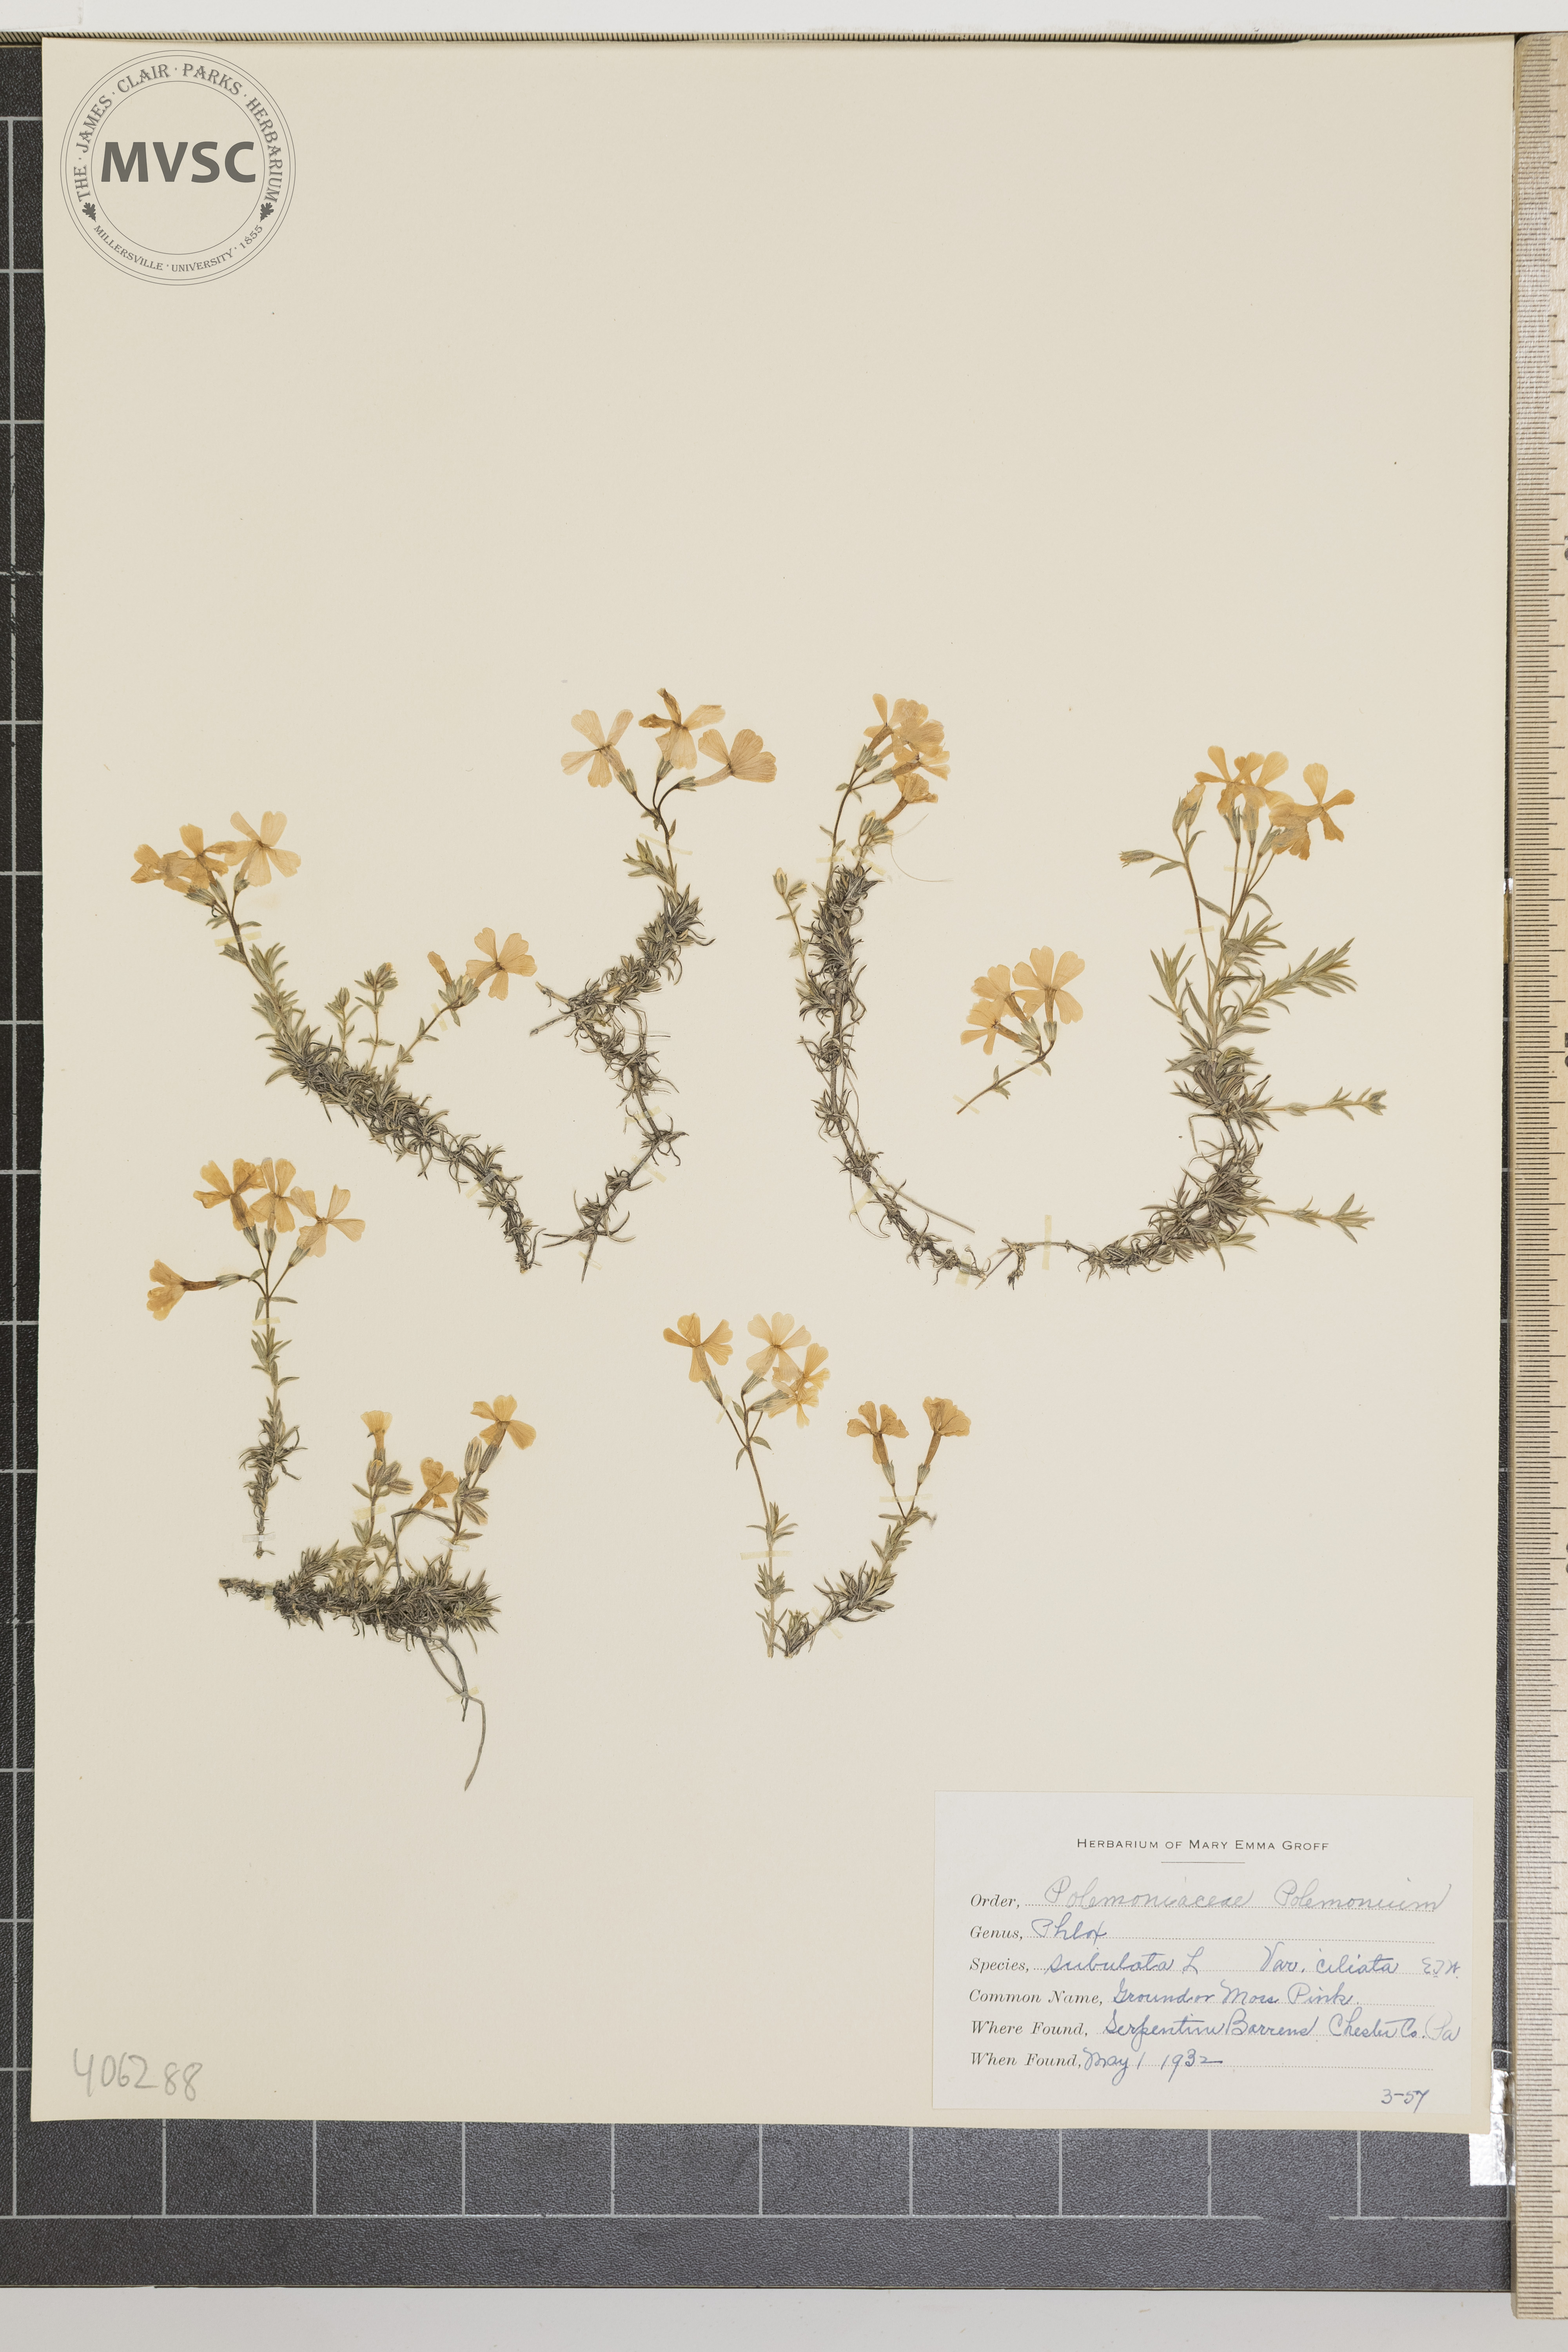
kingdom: Plantae
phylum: Tracheophyta
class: Magnoliopsida
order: Ericales
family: Polemoniaceae
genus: Phlox
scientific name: Phlox subulata
